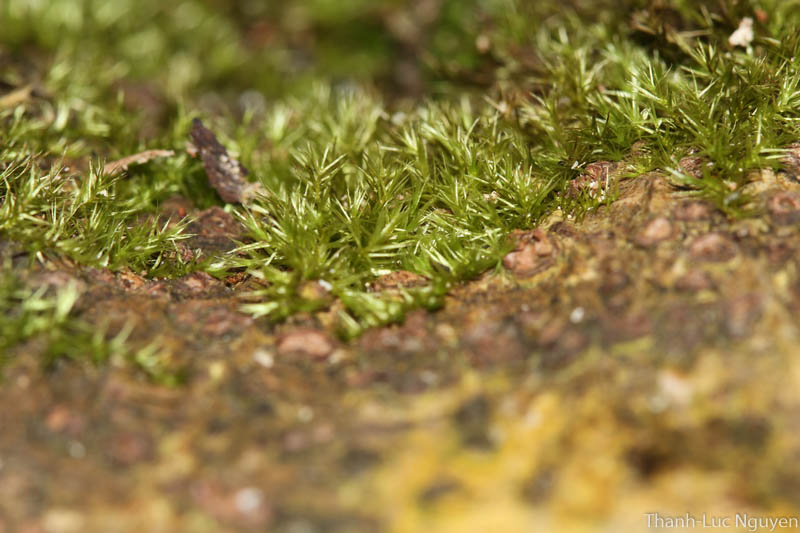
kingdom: Plantae
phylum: Bryophyta
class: Bryopsida
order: Hypnales
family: Brachytheciaceae
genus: Rhynchostegiella
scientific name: Rhynchostegiella menadensis
